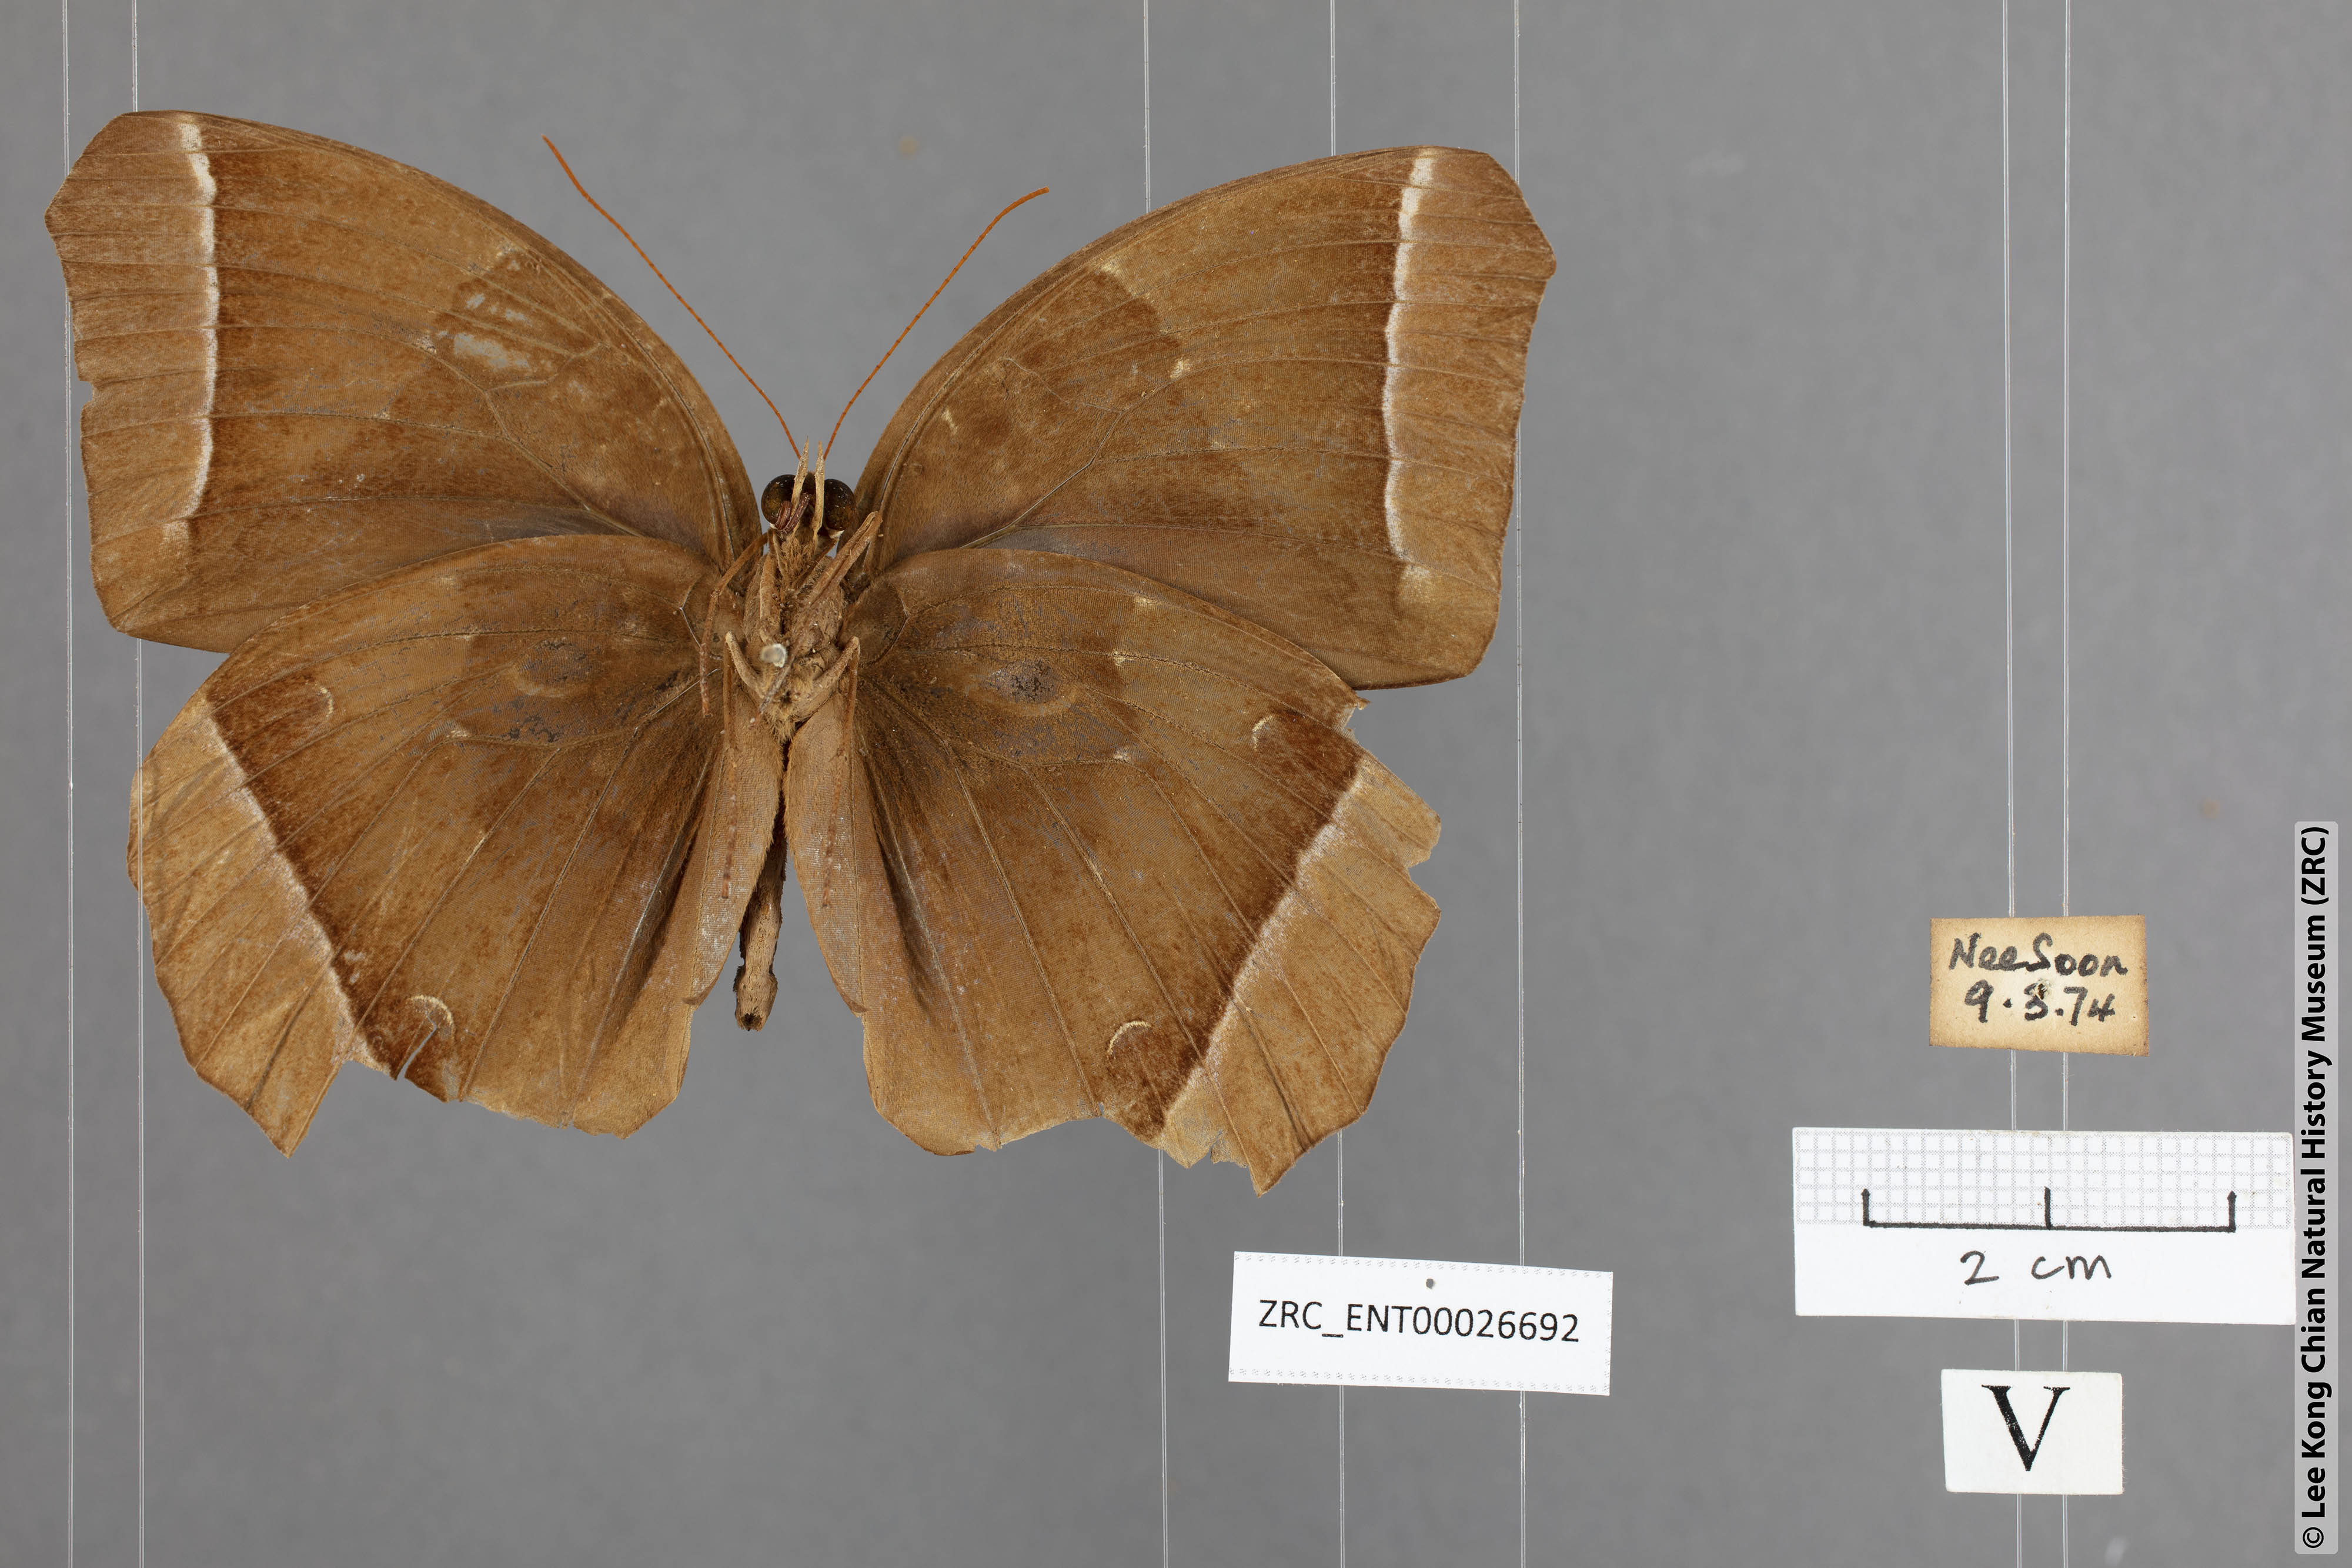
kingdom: Animalia
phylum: Arthropoda
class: Insecta
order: Lepidoptera
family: Nymphalidae
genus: Thaumantis
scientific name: Thaumantis noureddin
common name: Dark jungle glory
